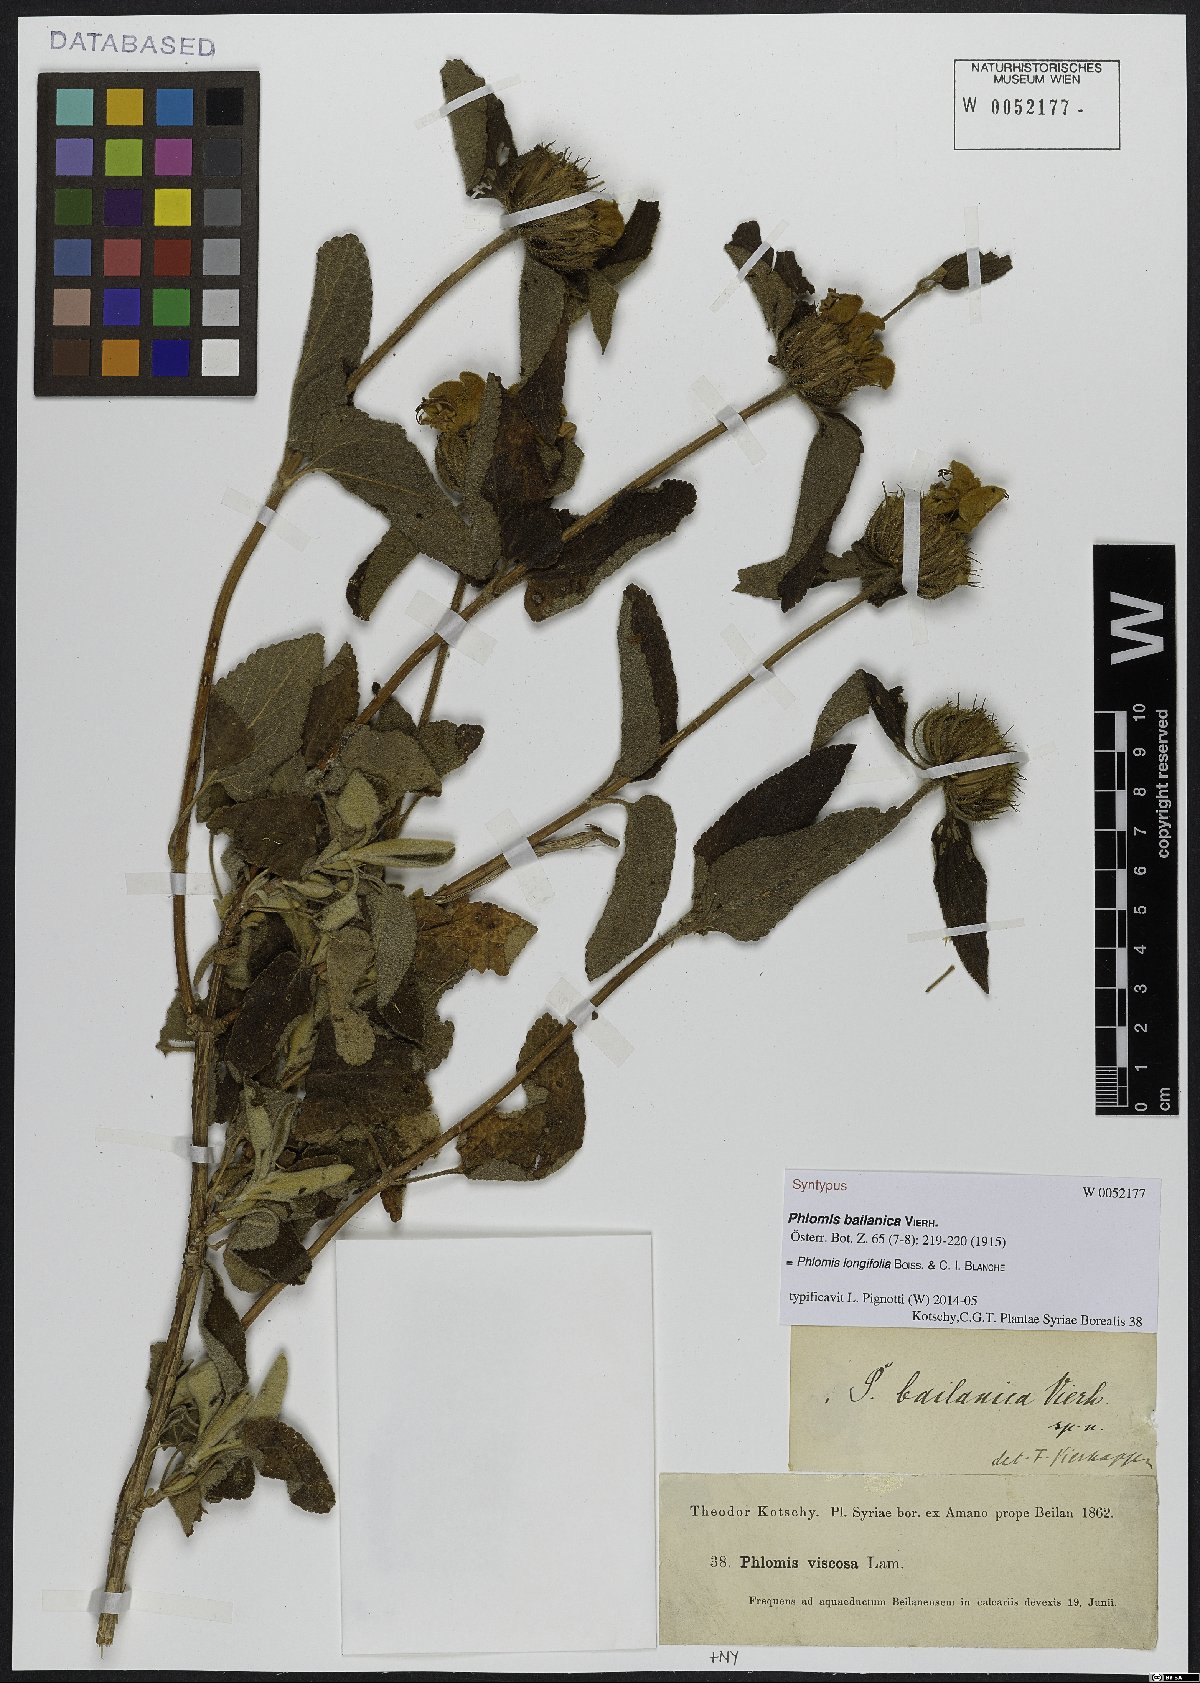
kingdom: Plantae
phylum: Tracheophyta
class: Magnoliopsida
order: Lamiales
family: Lamiaceae
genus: Phlomis
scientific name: Phlomis longifolia
